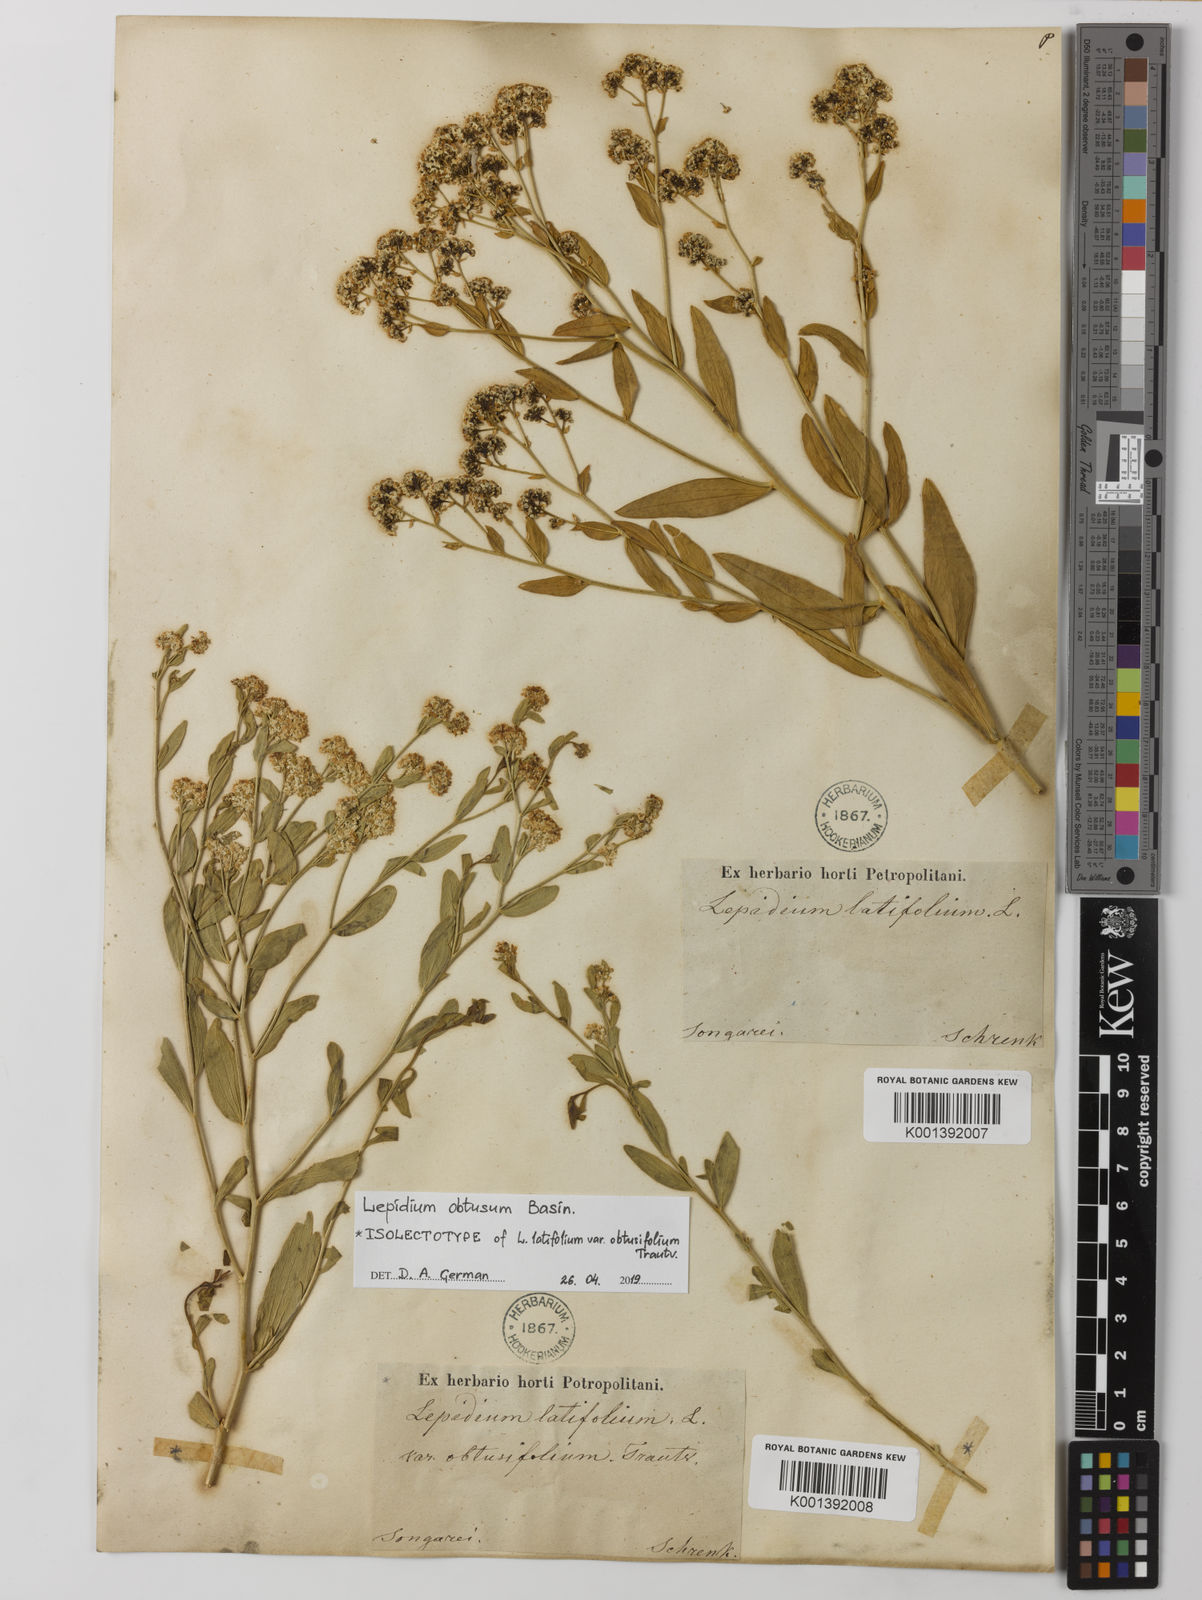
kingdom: Plantae
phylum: Tracheophyta
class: Magnoliopsida
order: Brassicales
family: Brassicaceae
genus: Lepidium
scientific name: Lepidium obtusum
